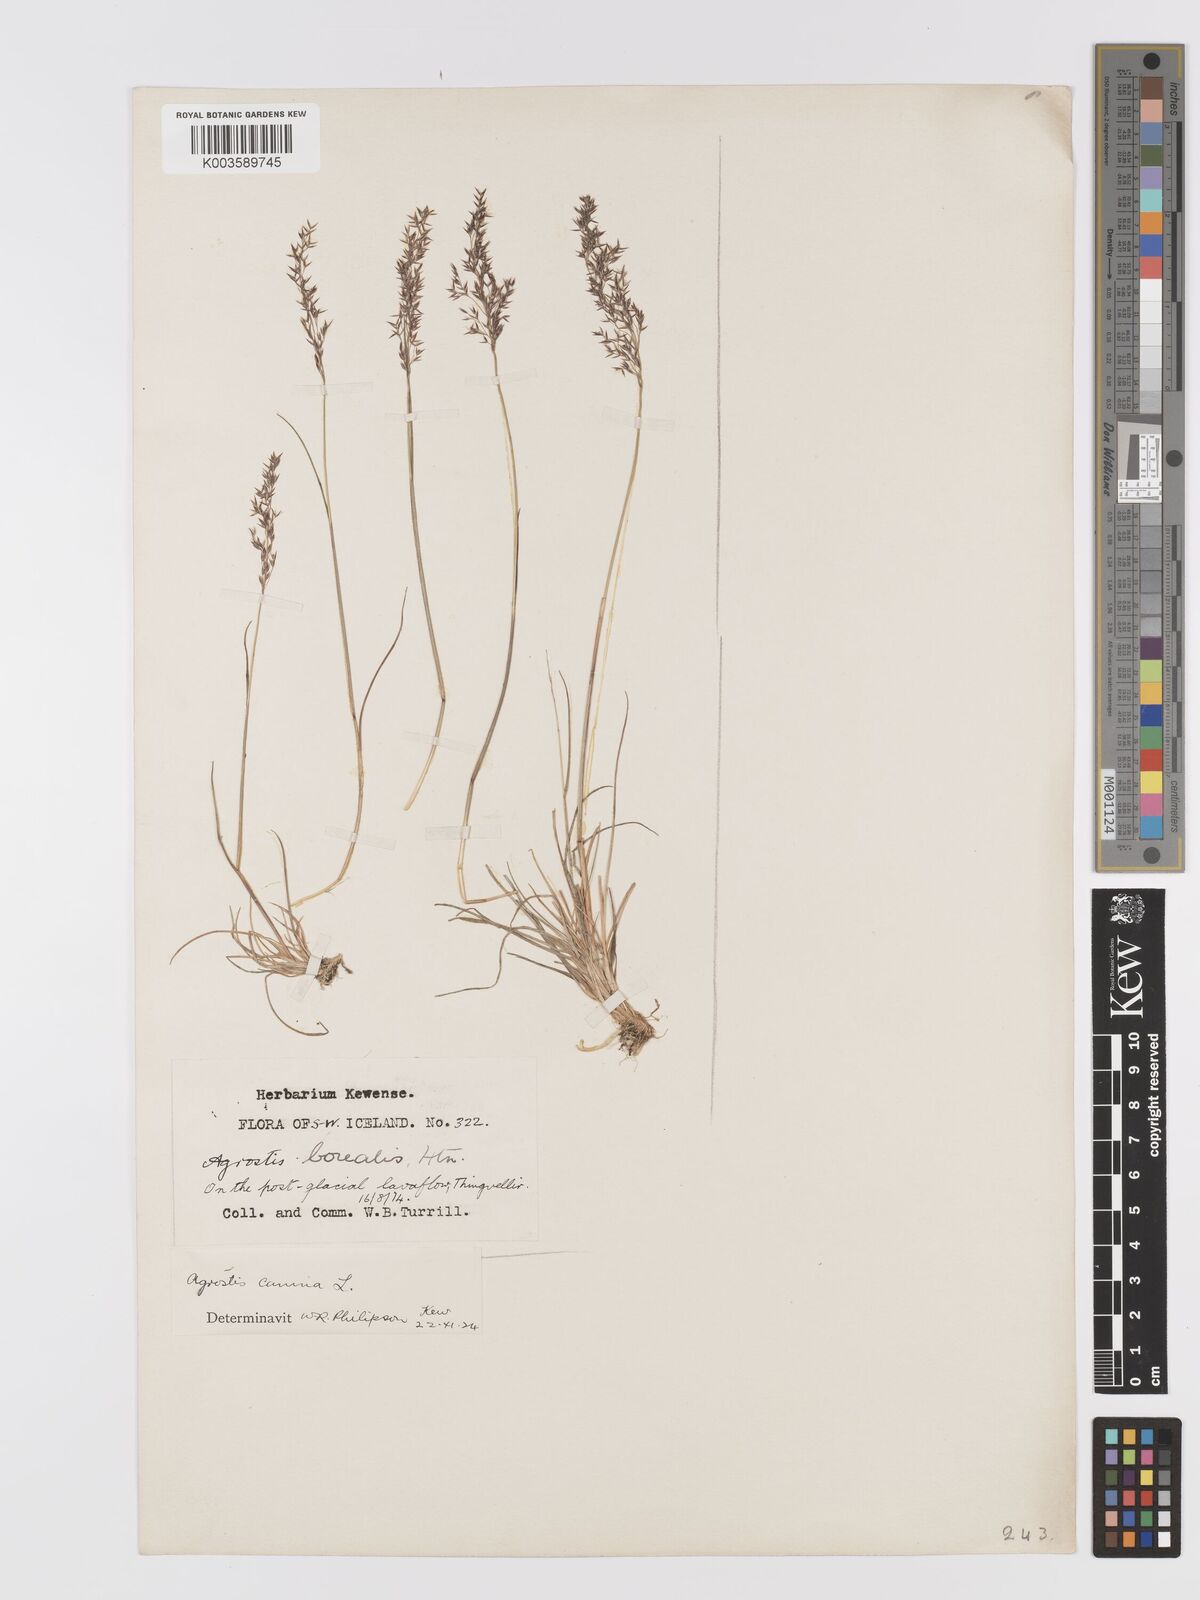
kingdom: Plantae
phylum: Tracheophyta
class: Liliopsida
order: Poales
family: Poaceae
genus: Agrostis
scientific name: Agrostis
